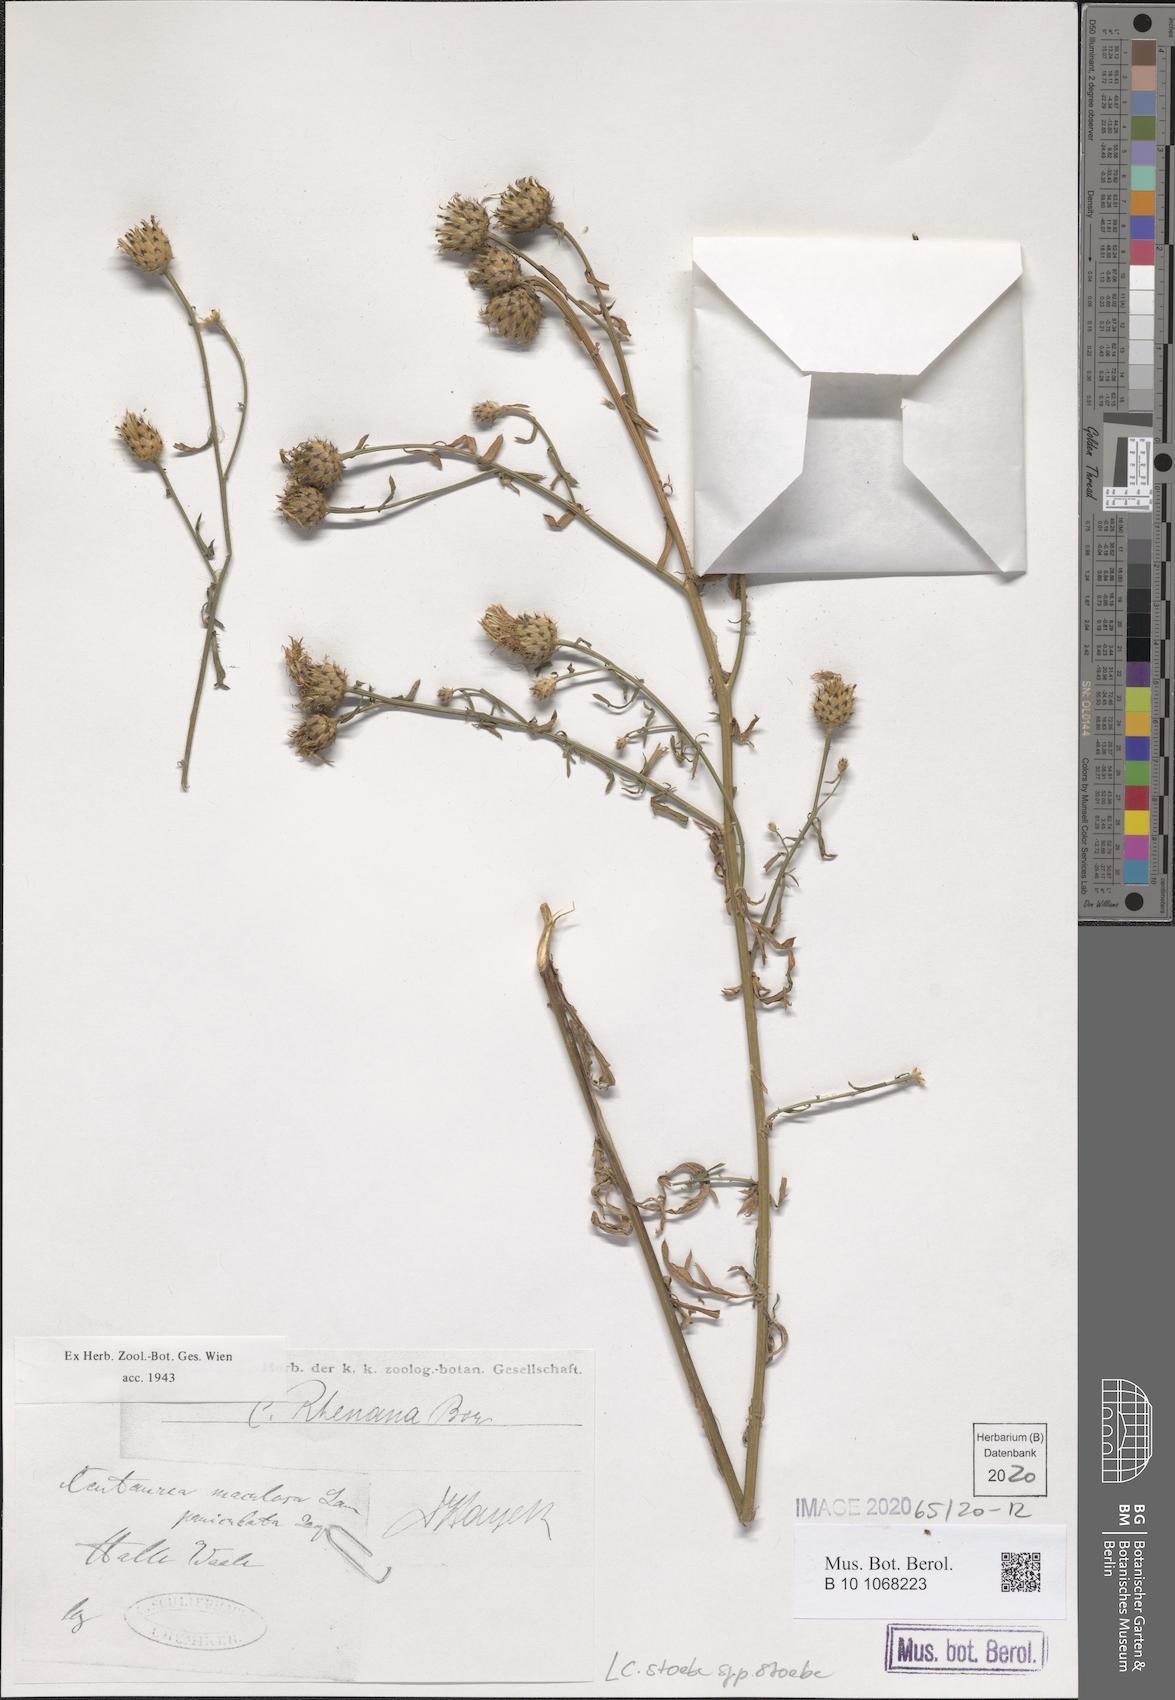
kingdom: Plantae
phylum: Tracheophyta
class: Magnoliopsida
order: Asterales
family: Asteraceae
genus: Centaurea
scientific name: Centaurea stoebe
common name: Spotted knapweed
